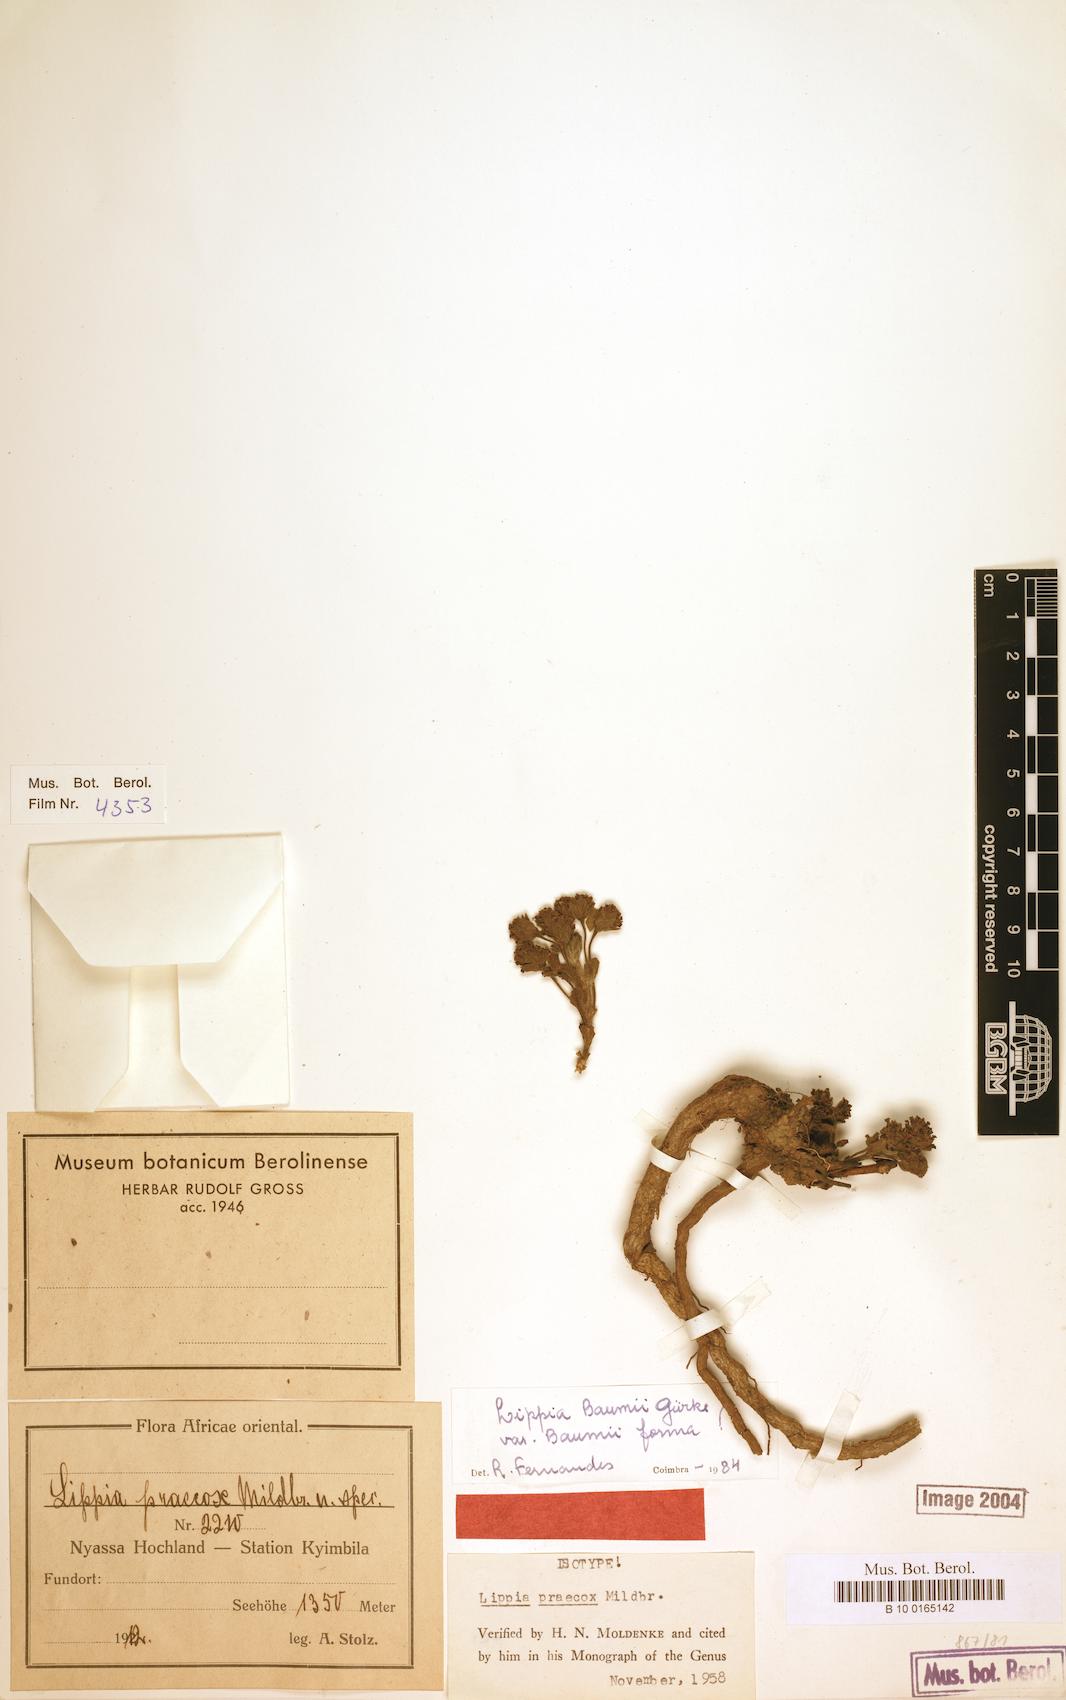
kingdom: Plantae
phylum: Tracheophyta
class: Magnoliopsida
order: Lamiales
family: Verbenaceae
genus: Lippia
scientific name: Lippia baumii
